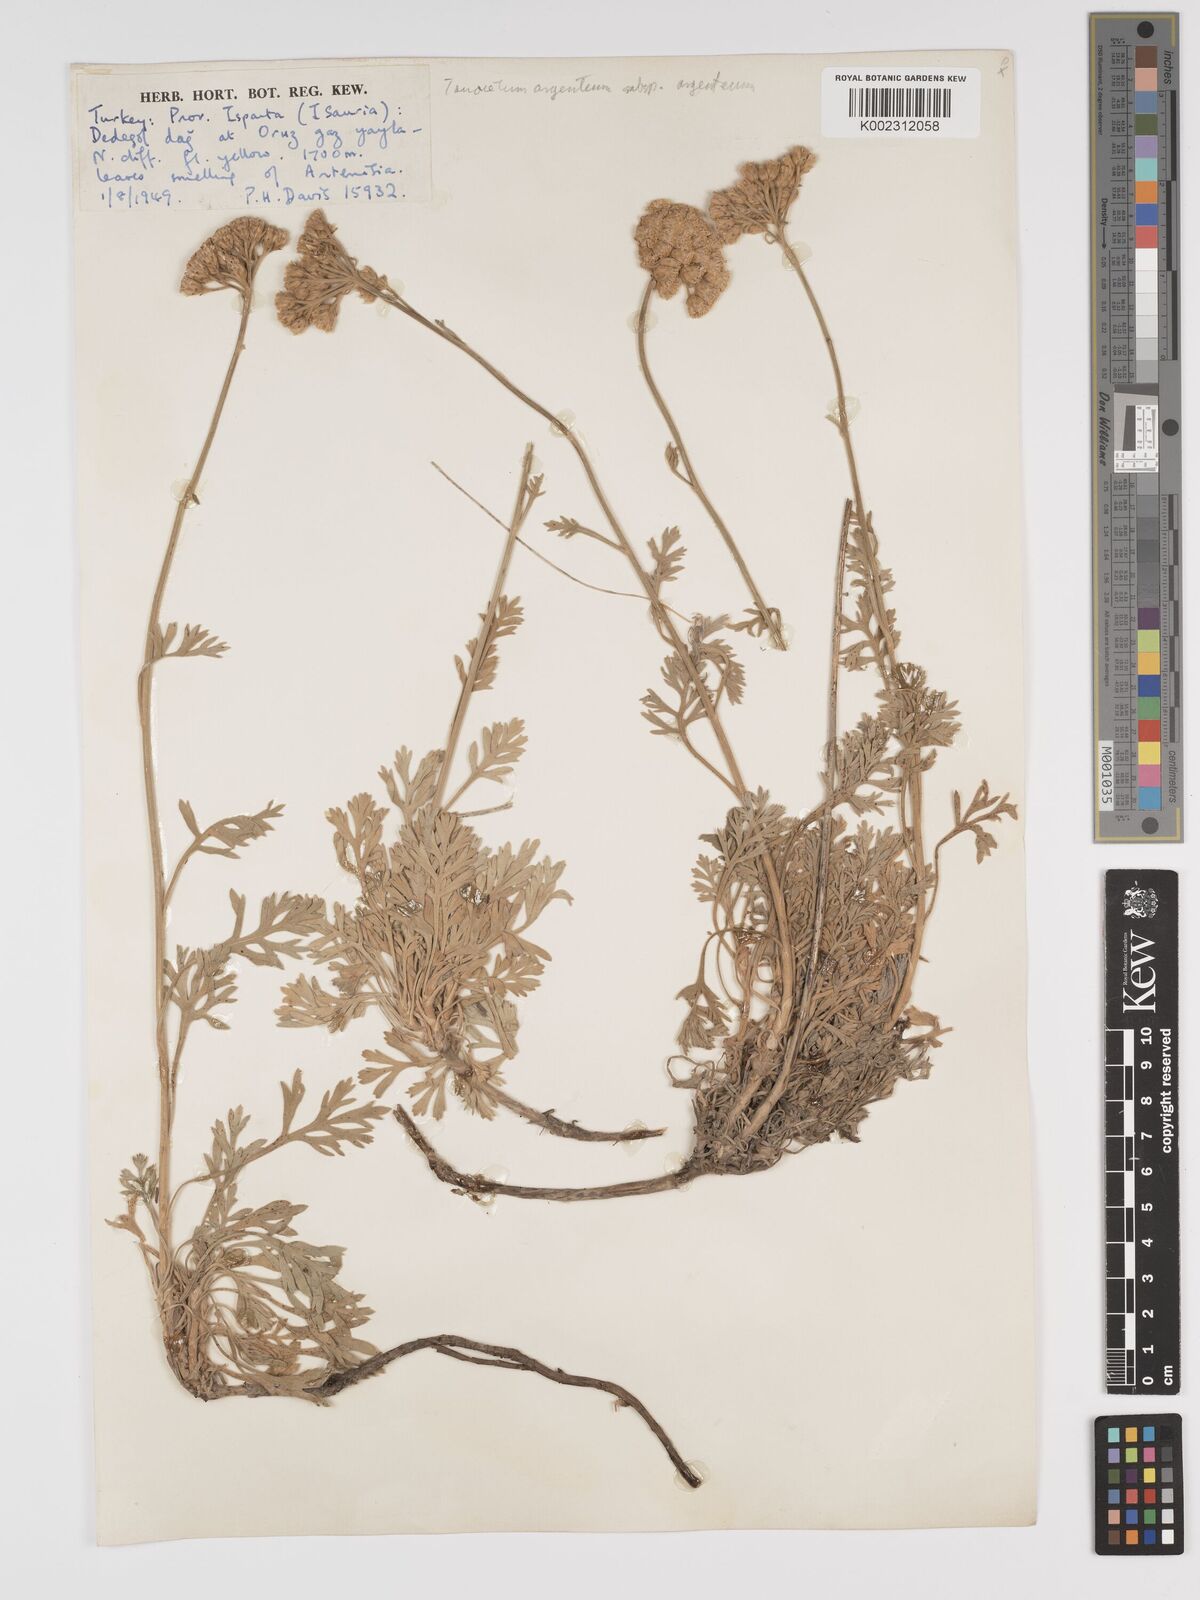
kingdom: Plantae
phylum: Tracheophyta
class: Magnoliopsida
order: Asterales
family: Asteraceae
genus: Tanacetum
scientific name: Tanacetum argenteum
